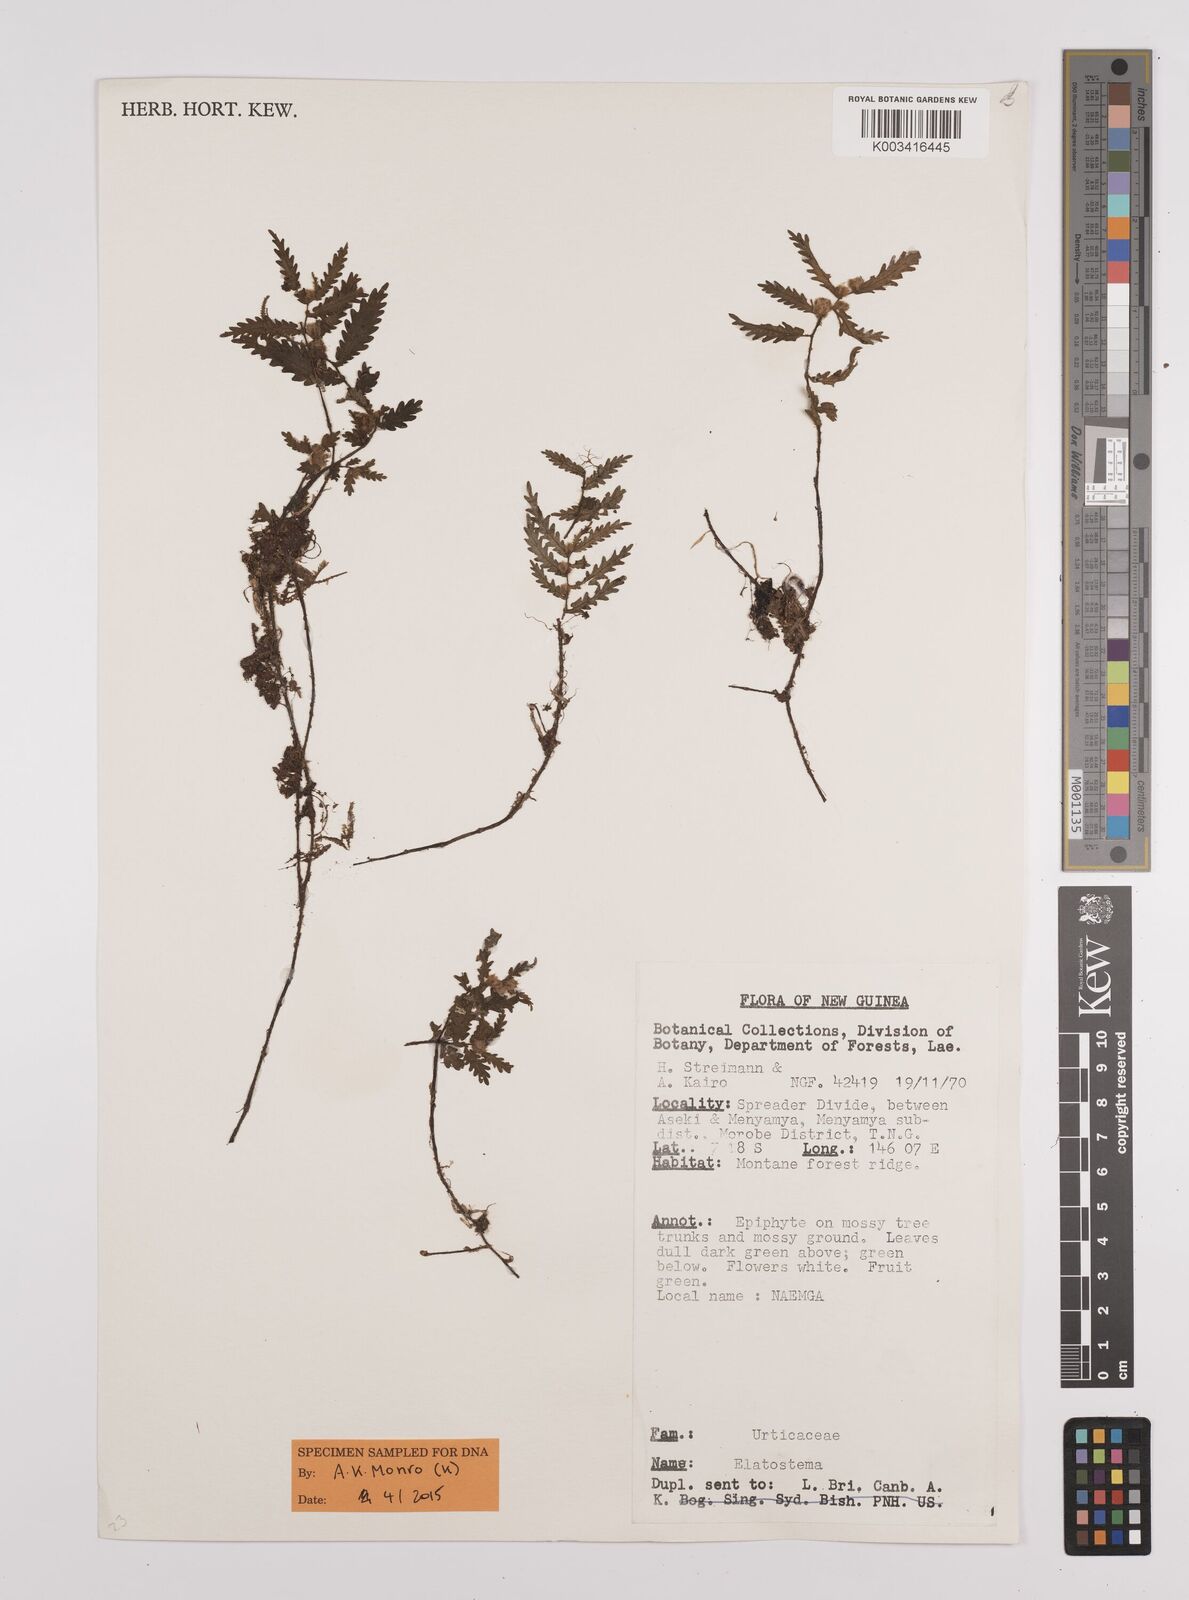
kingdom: Plantae
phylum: Tracheophyta
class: Magnoliopsida
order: Rosales
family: Urticaceae
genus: Elatostema
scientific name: Elatostema
